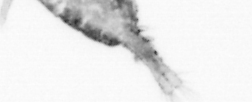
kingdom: Animalia
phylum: Arthropoda
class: Copepoda
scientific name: Copepoda
